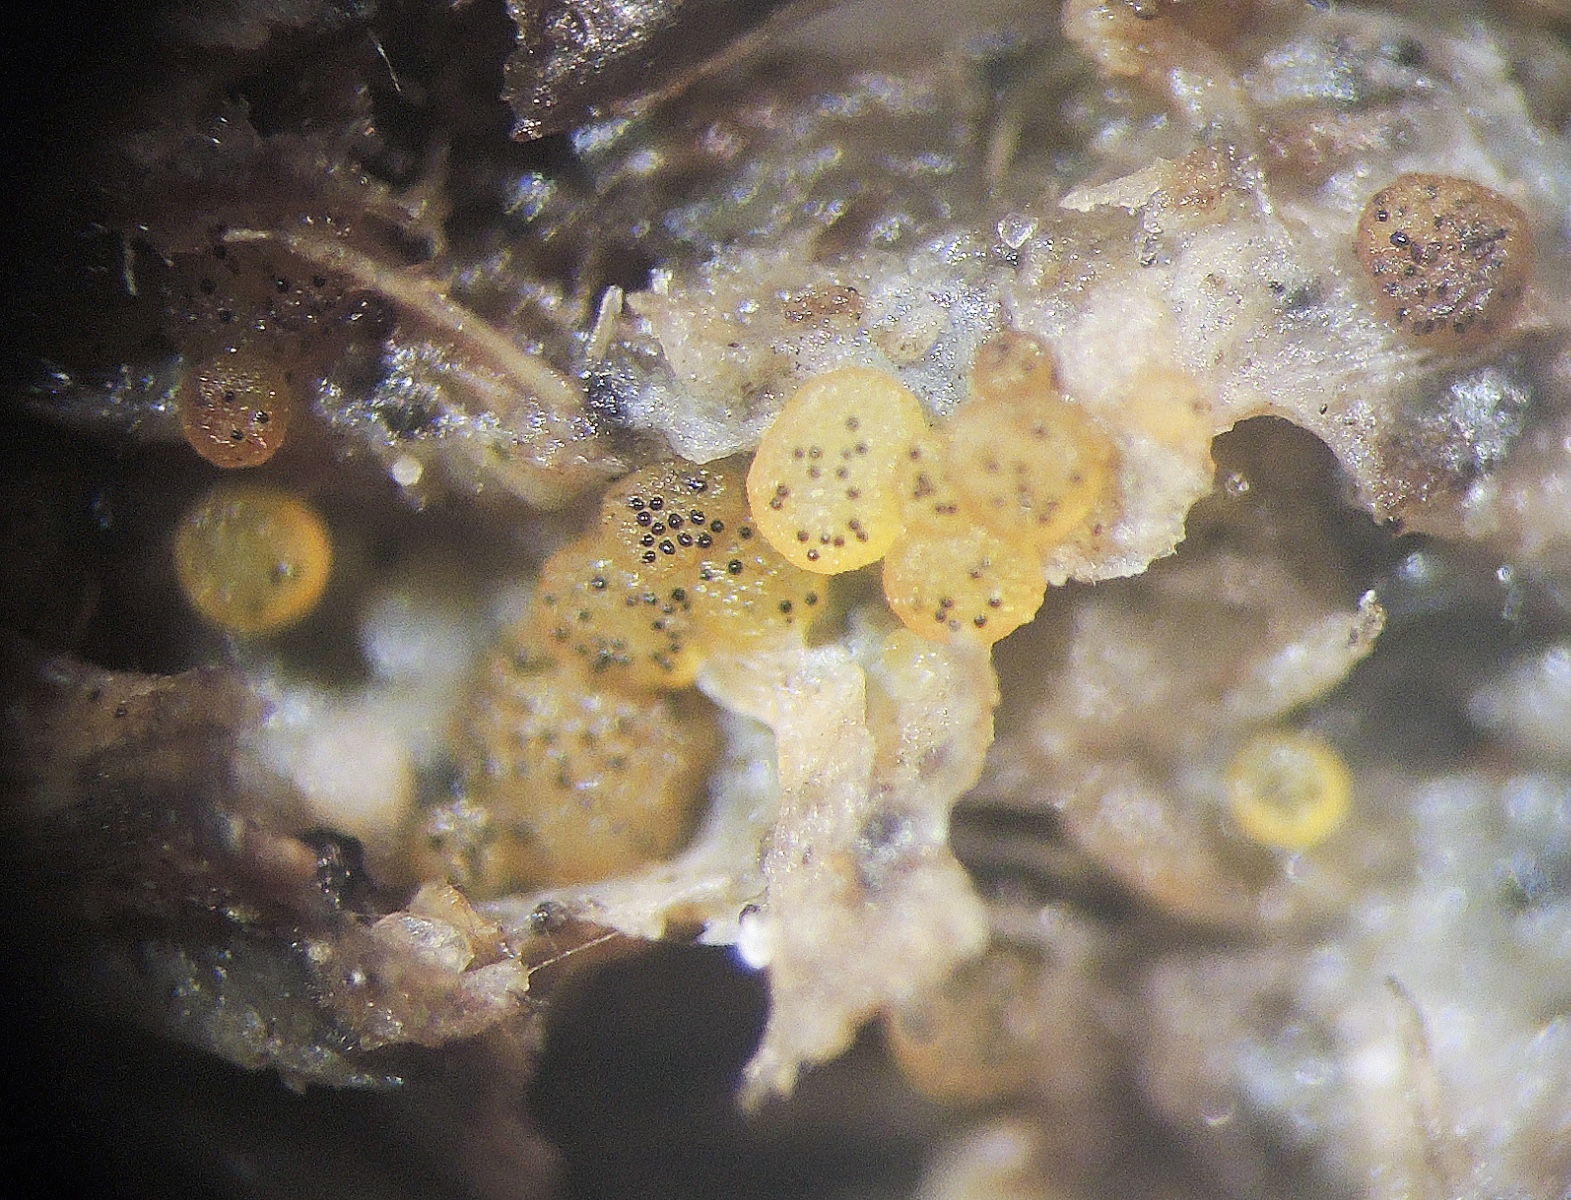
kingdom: Fungi
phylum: Ascomycota
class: Pezizomycetes
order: Pezizales
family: Ascobolaceae
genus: Saccobolus
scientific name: Saccobolus glaber
